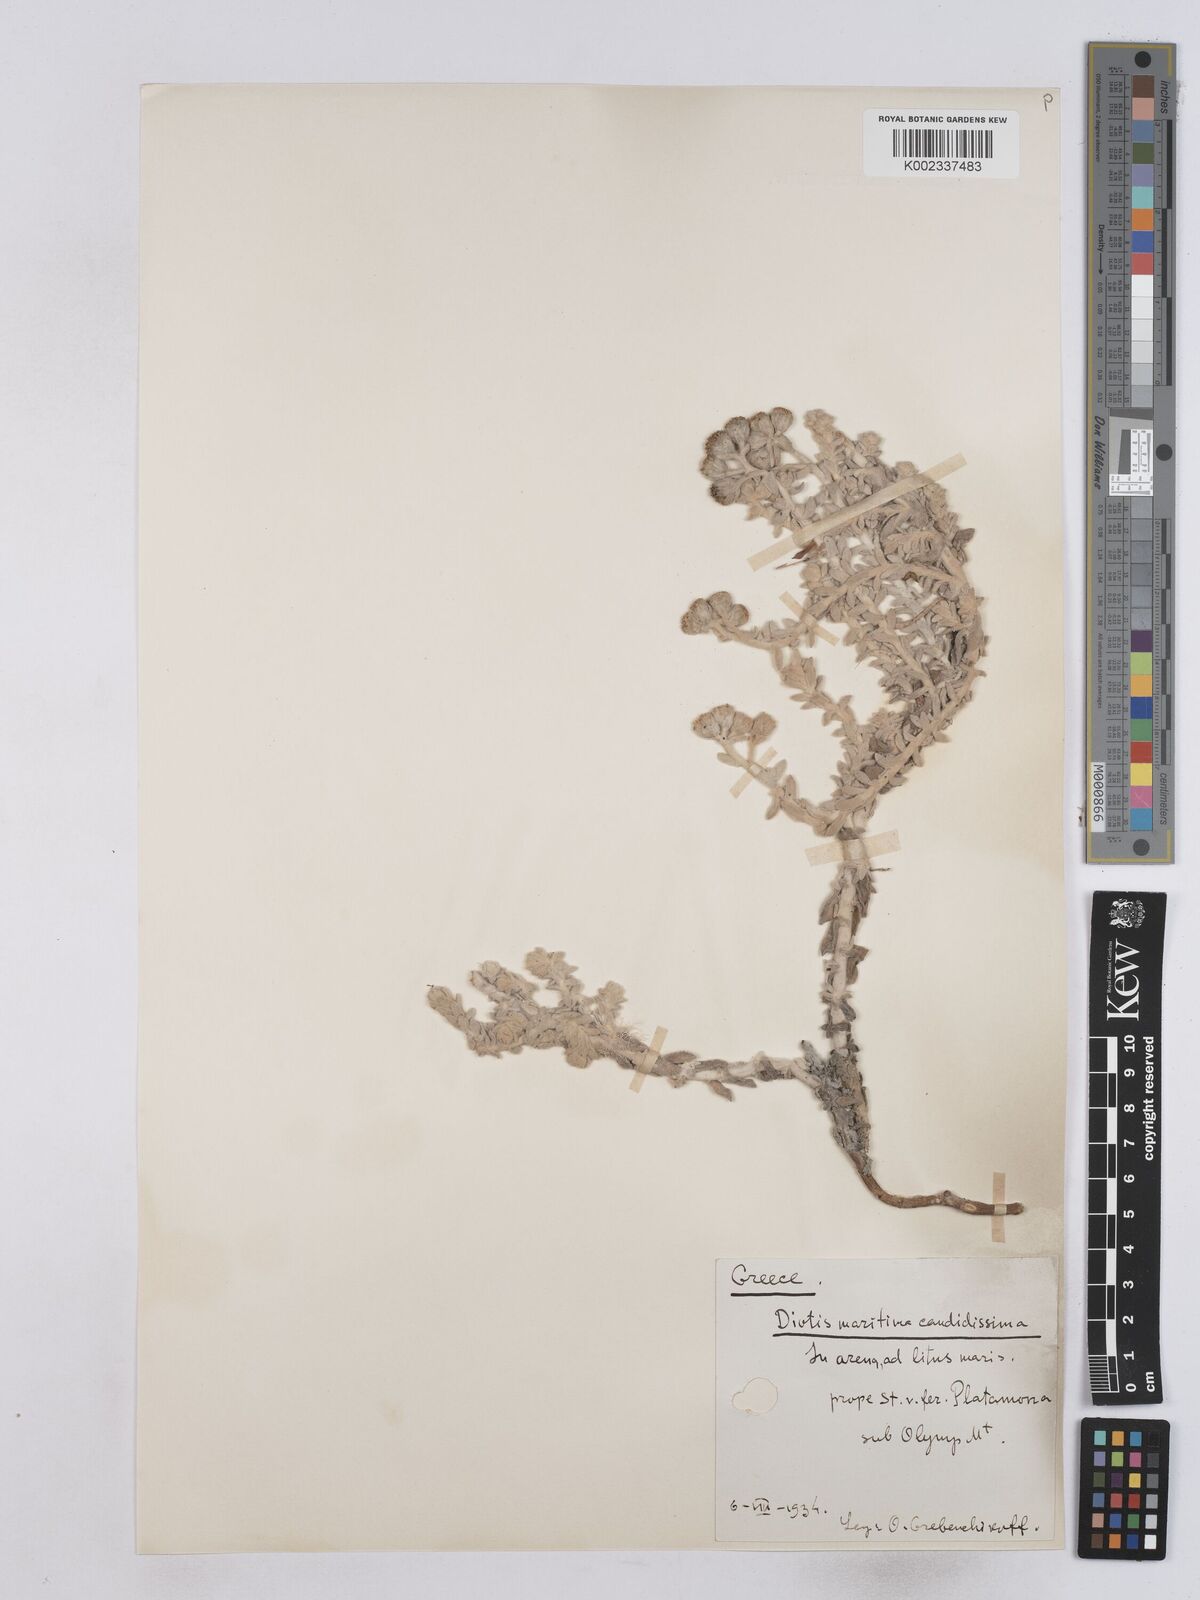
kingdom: Plantae
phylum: Tracheophyta
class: Magnoliopsida
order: Asterales
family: Asteraceae
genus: Achillea
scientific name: Achillea maritima
